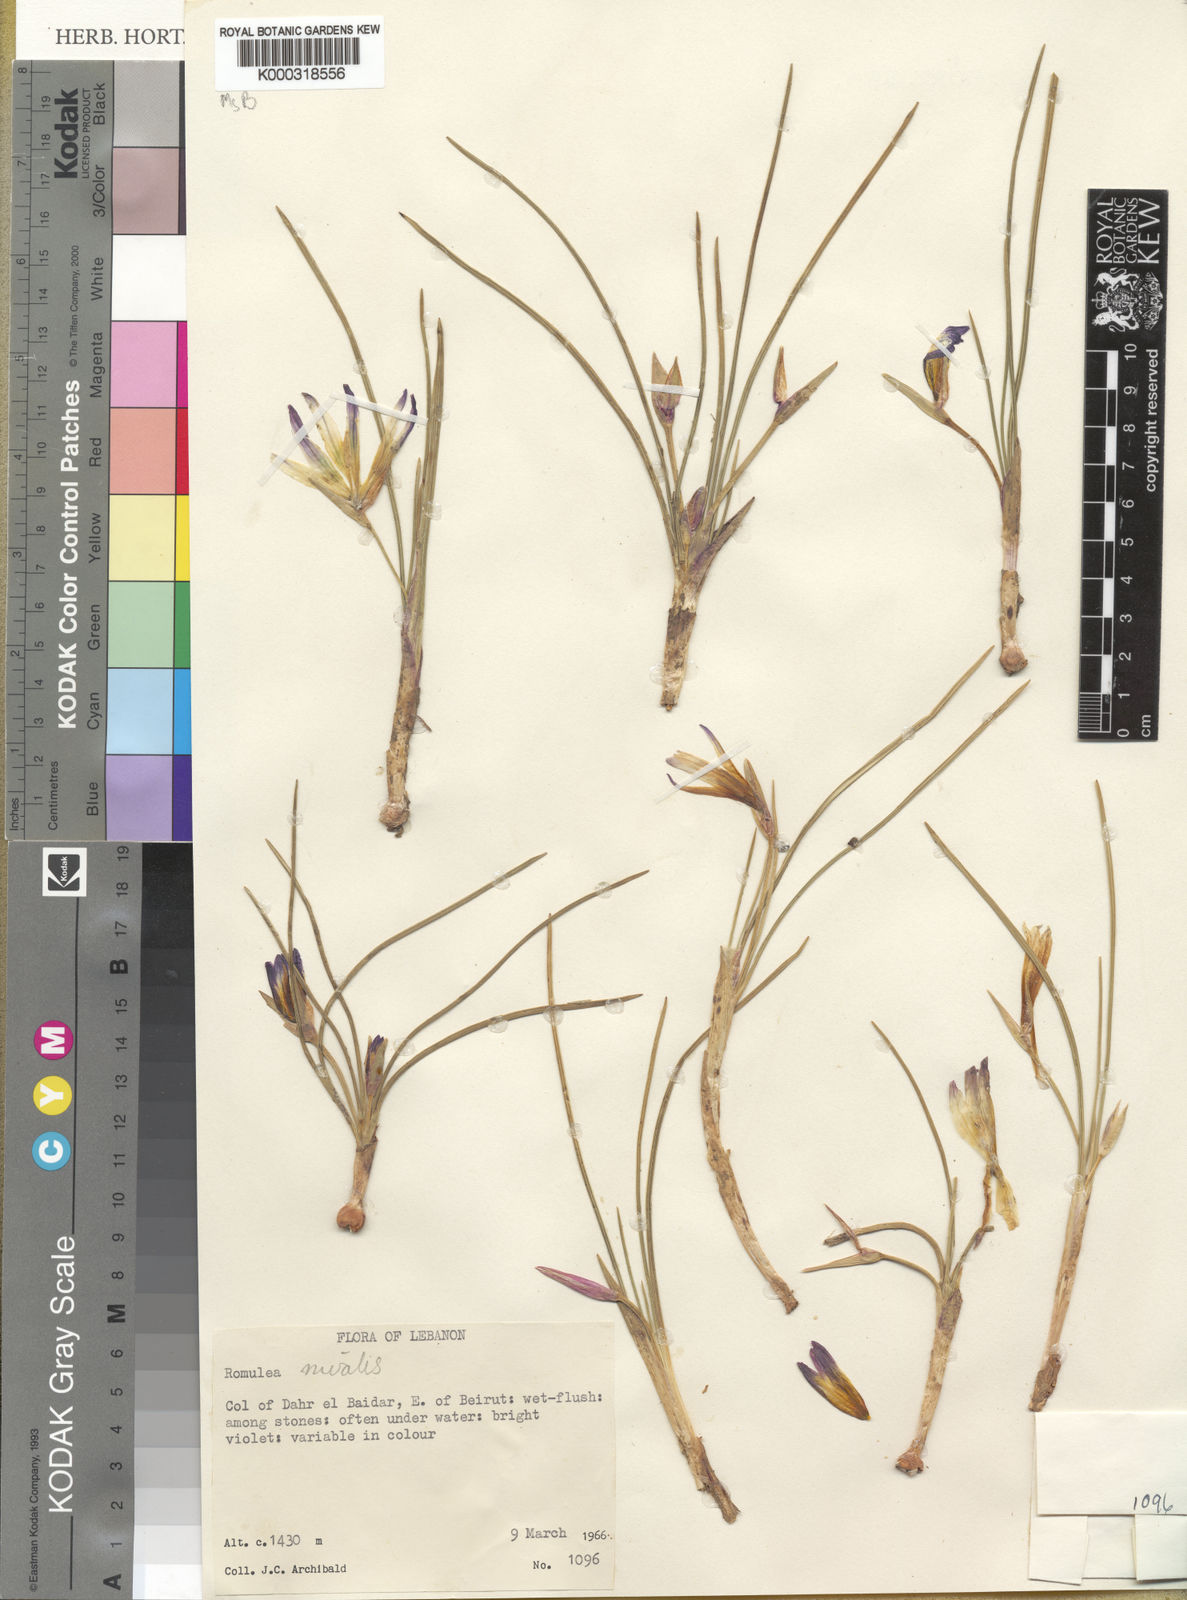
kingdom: Plantae
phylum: Tracheophyta
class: Liliopsida
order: Asparagales
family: Iridaceae
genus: Romulea
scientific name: Romulea nivalis
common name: Snow romulea
